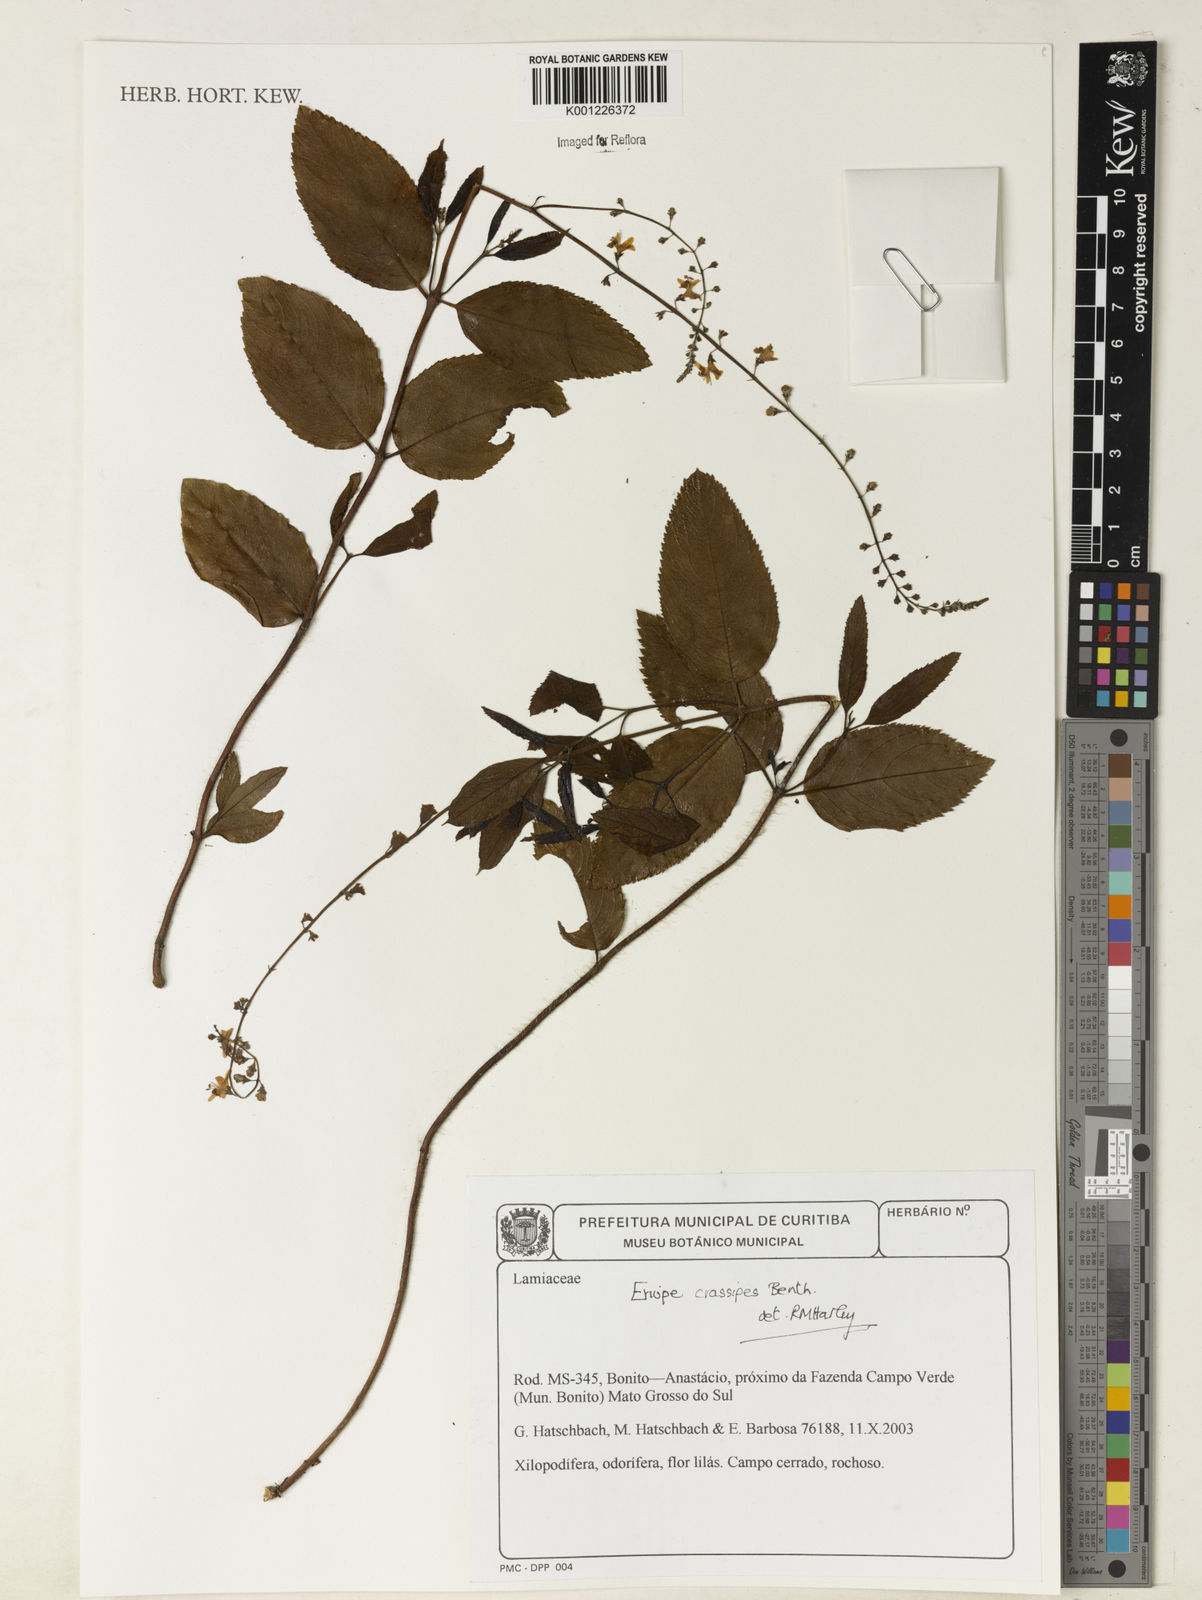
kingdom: Plantae
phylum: Tracheophyta
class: Magnoliopsida
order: Lamiales
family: Lamiaceae
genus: Eriope
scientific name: Eriope crassipes
